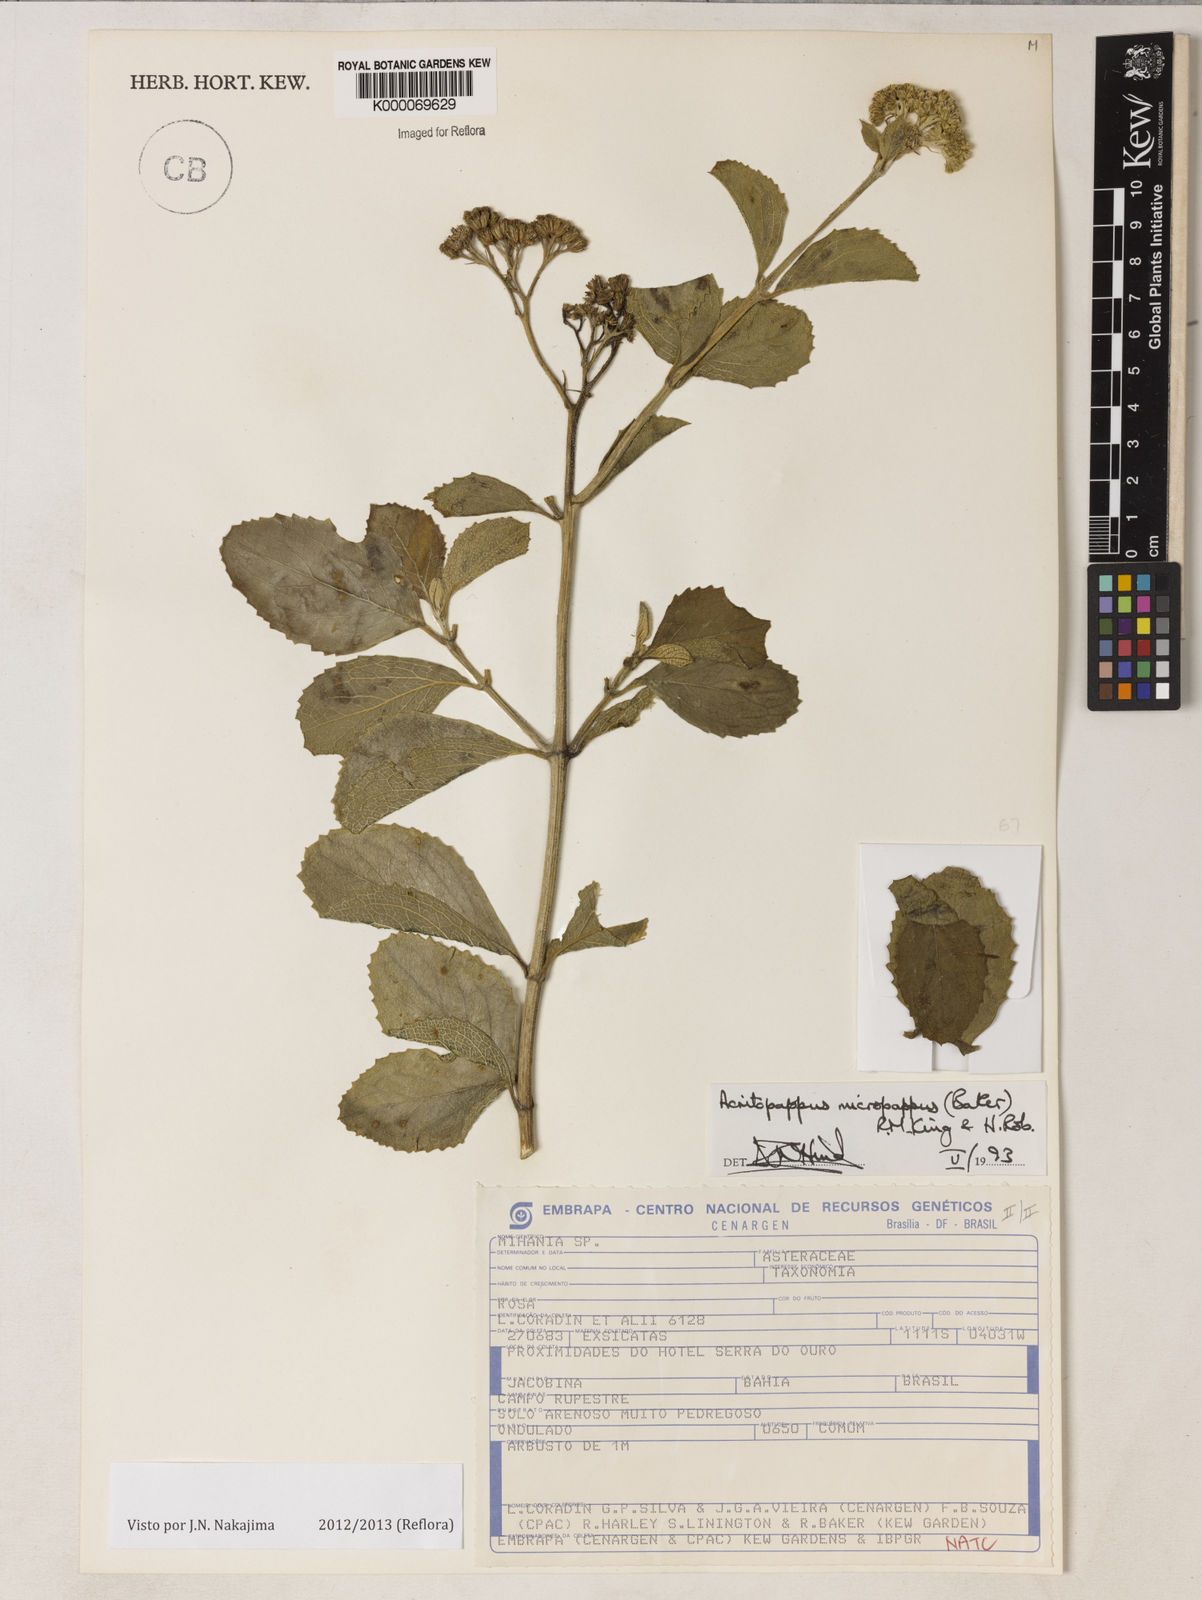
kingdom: Plantae
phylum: Tracheophyta
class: Magnoliopsida
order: Asterales
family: Asteraceae
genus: Acritopappus
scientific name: Acritopappus micropappus
